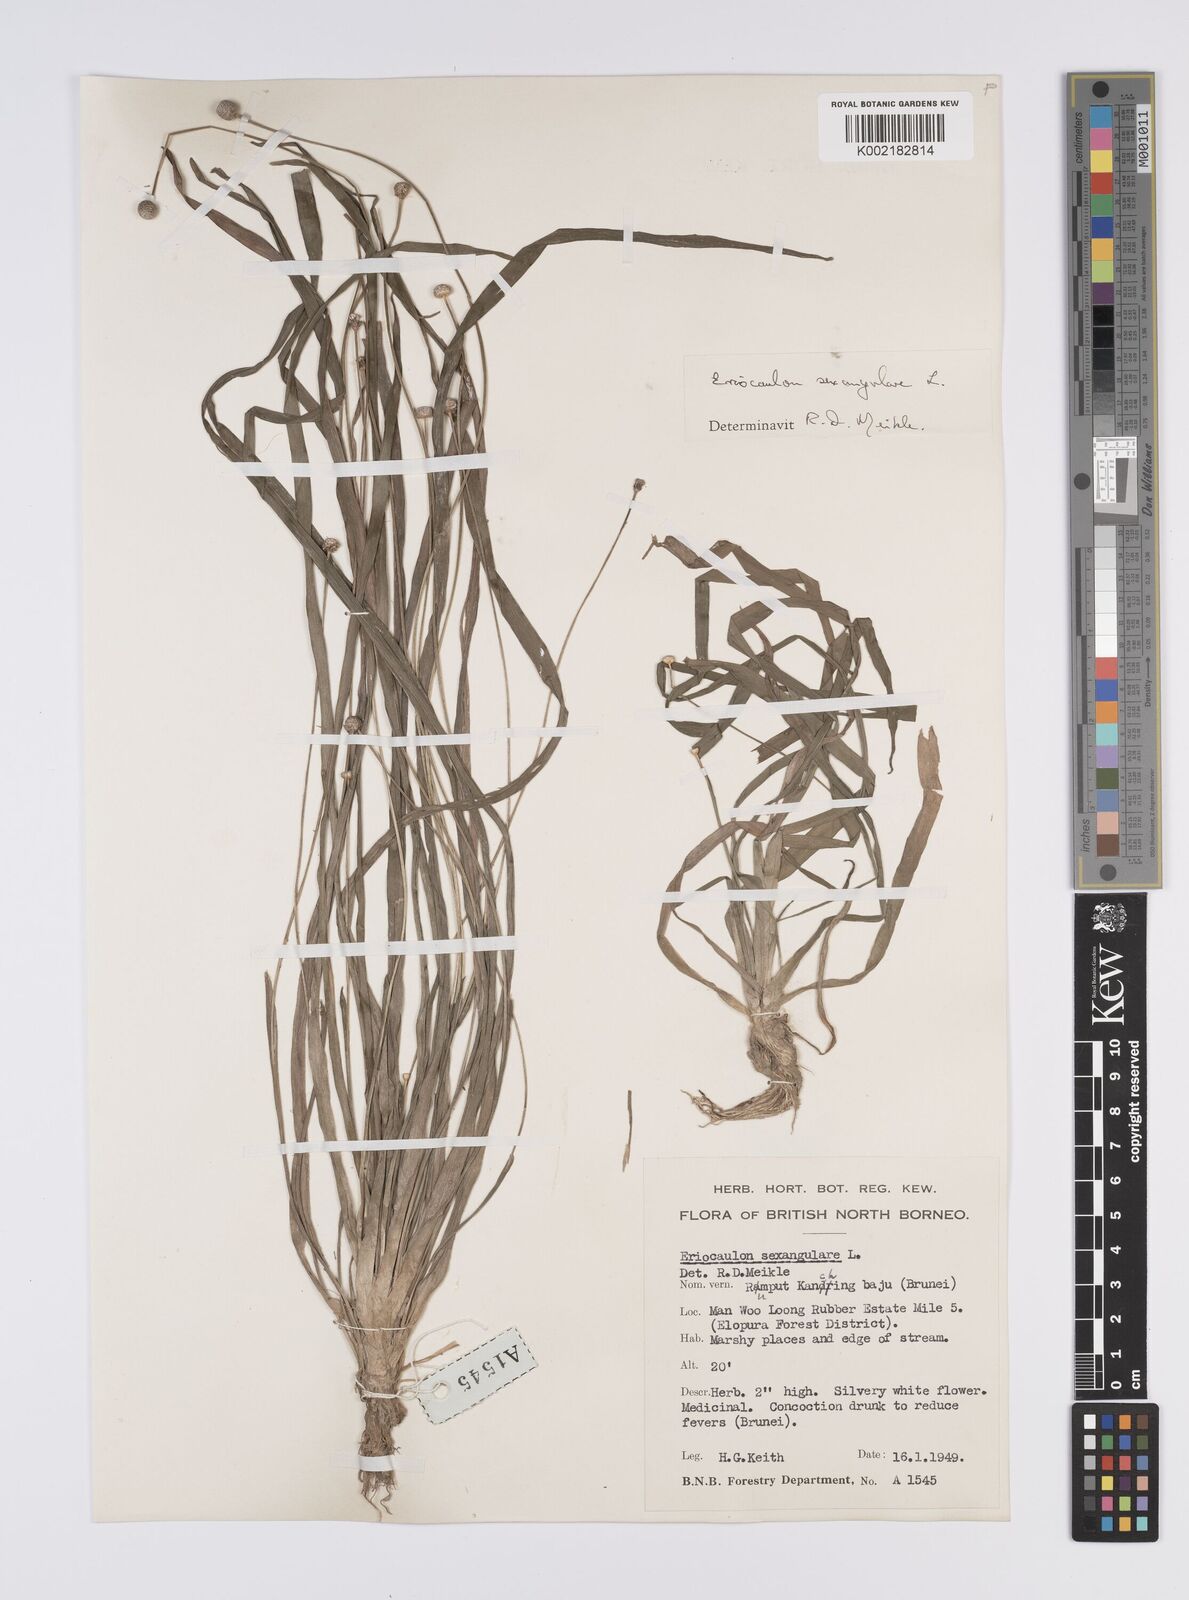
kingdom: Plantae
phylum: Tracheophyta
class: Liliopsida
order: Poales
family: Eriocaulaceae
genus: Eriocaulon
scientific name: Eriocaulon sexangulare
